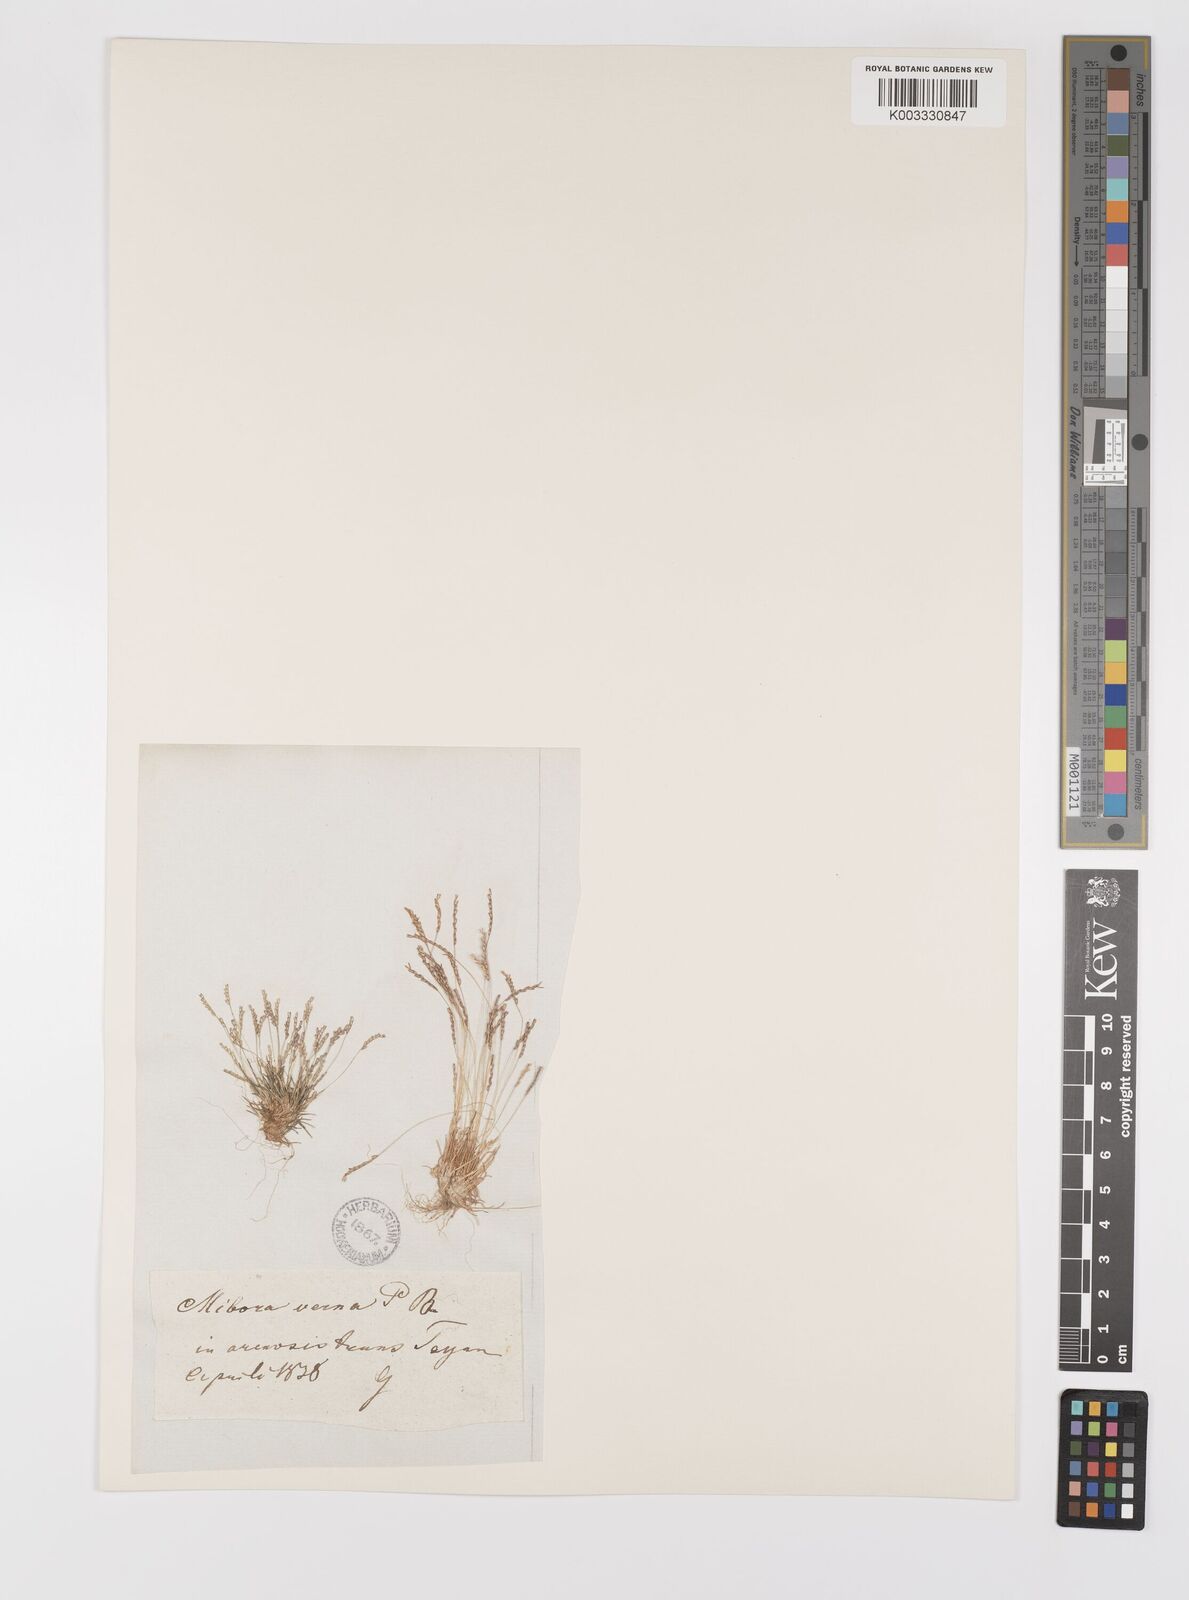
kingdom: Plantae
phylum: Tracheophyta
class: Liliopsida
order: Poales
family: Poaceae
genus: Mibora
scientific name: Mibora minima
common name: Early sand-grass
